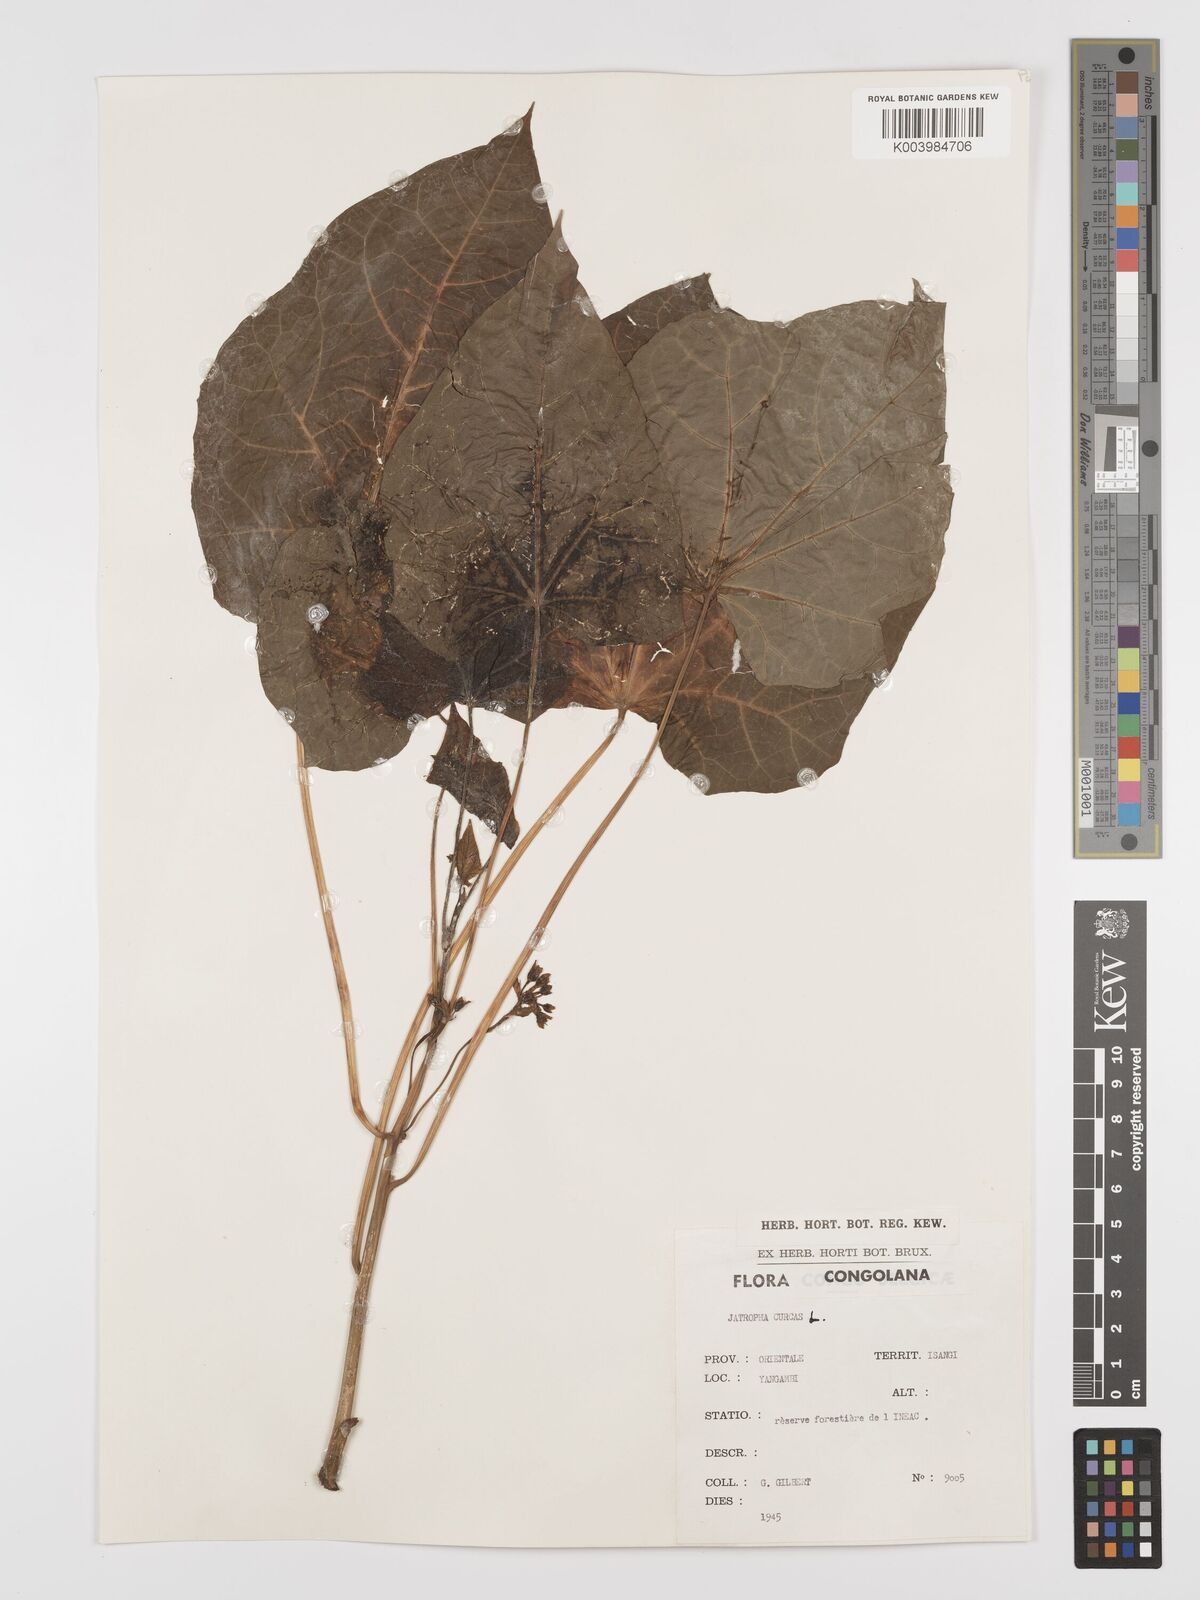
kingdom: Plantae
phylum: Tracheophyta
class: Magnoliopsida
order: Malpighiales
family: Euphorbiaceae
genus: Jatropha
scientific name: Jatropha curcas
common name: Barbados nut
